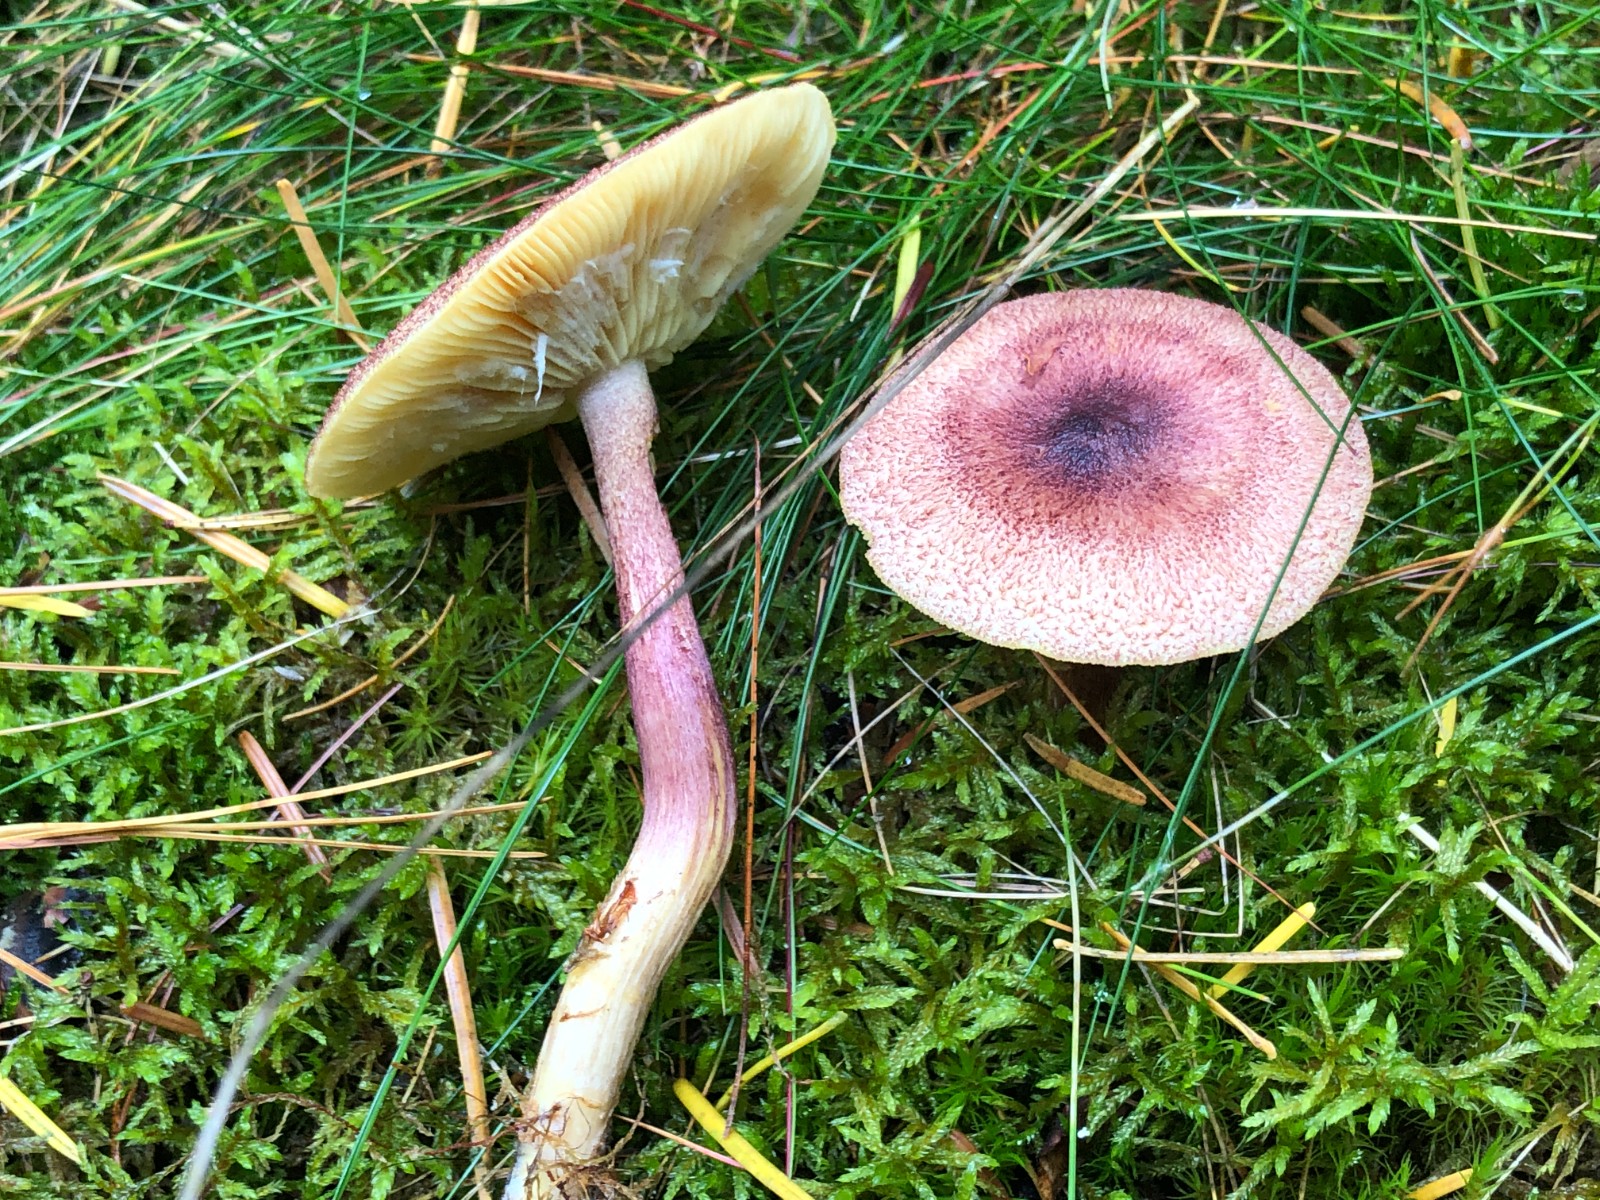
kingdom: Fungi
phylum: Basidiomycota
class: Agaricomycetes
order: Agaricales
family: Tricholomataceae
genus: Tricholomopsis
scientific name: Tricholomopsis rutilans
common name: purpur-væbnerhat
